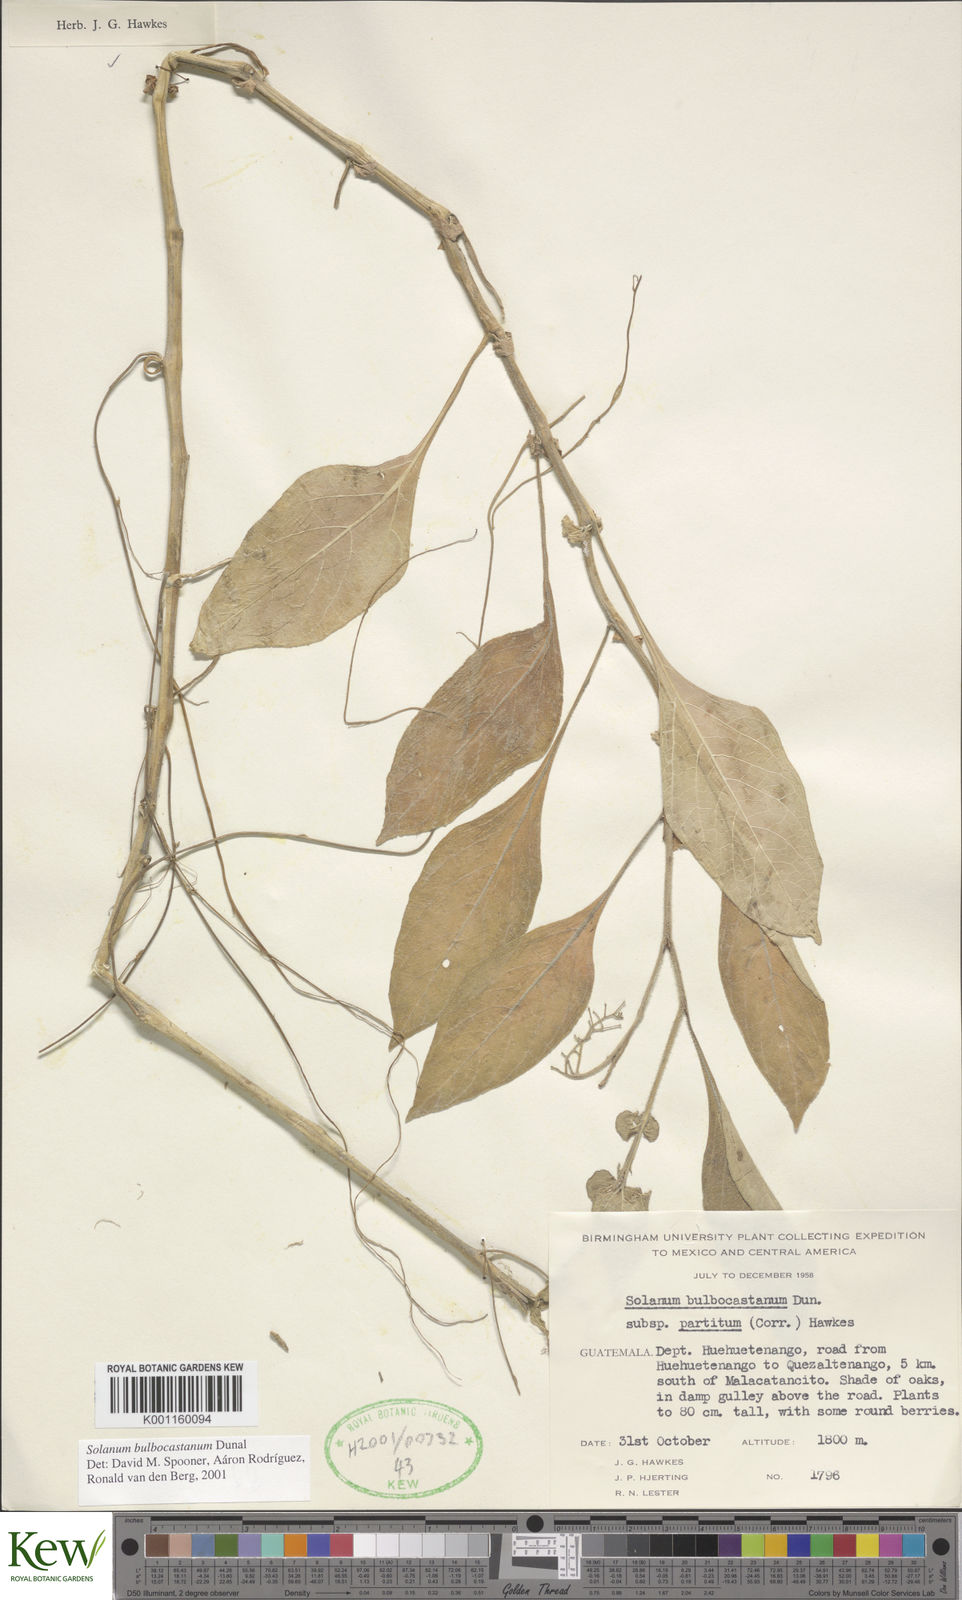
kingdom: Plantae
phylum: Tracheophyta
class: Magnoliopsida
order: Solanales
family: Solanaceae
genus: Solanum
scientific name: Solanum bulbocastanum
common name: Ornamental nightshade
